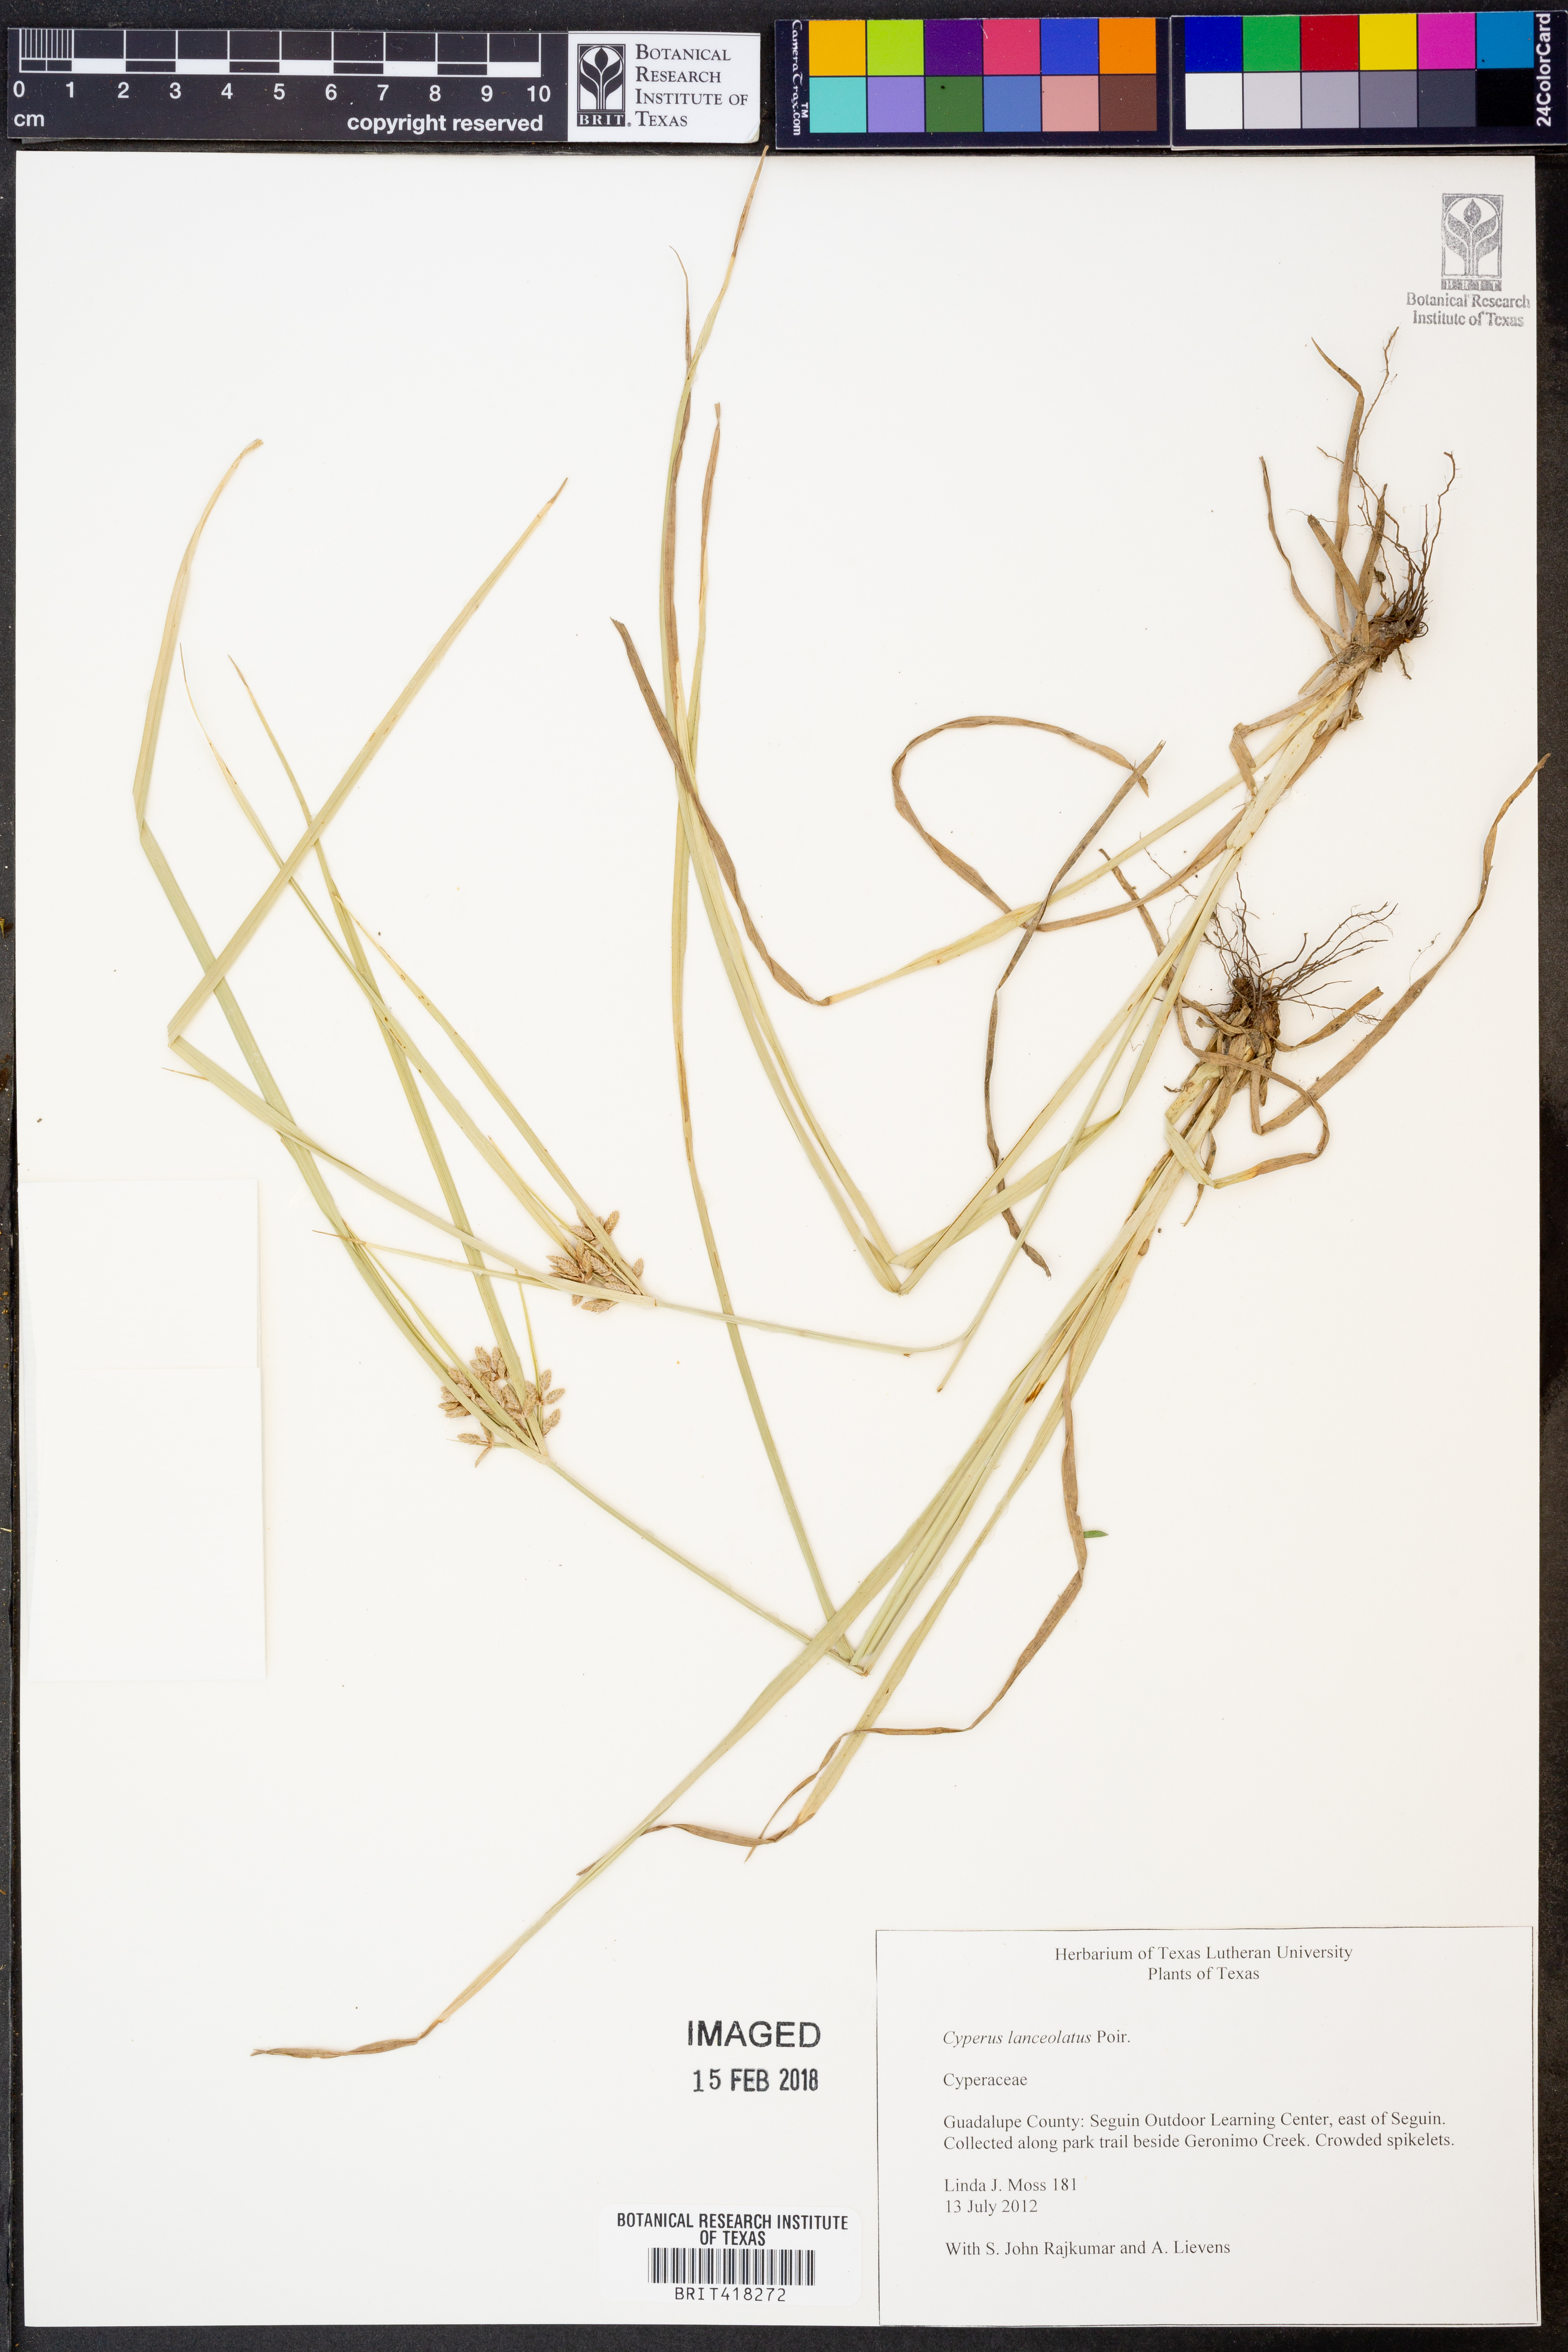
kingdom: Plantae
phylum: Tracheophyta
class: Liliopsida
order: Poales
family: Cyperaceae
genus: Cyperus
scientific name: Cyperus lanceolatus
